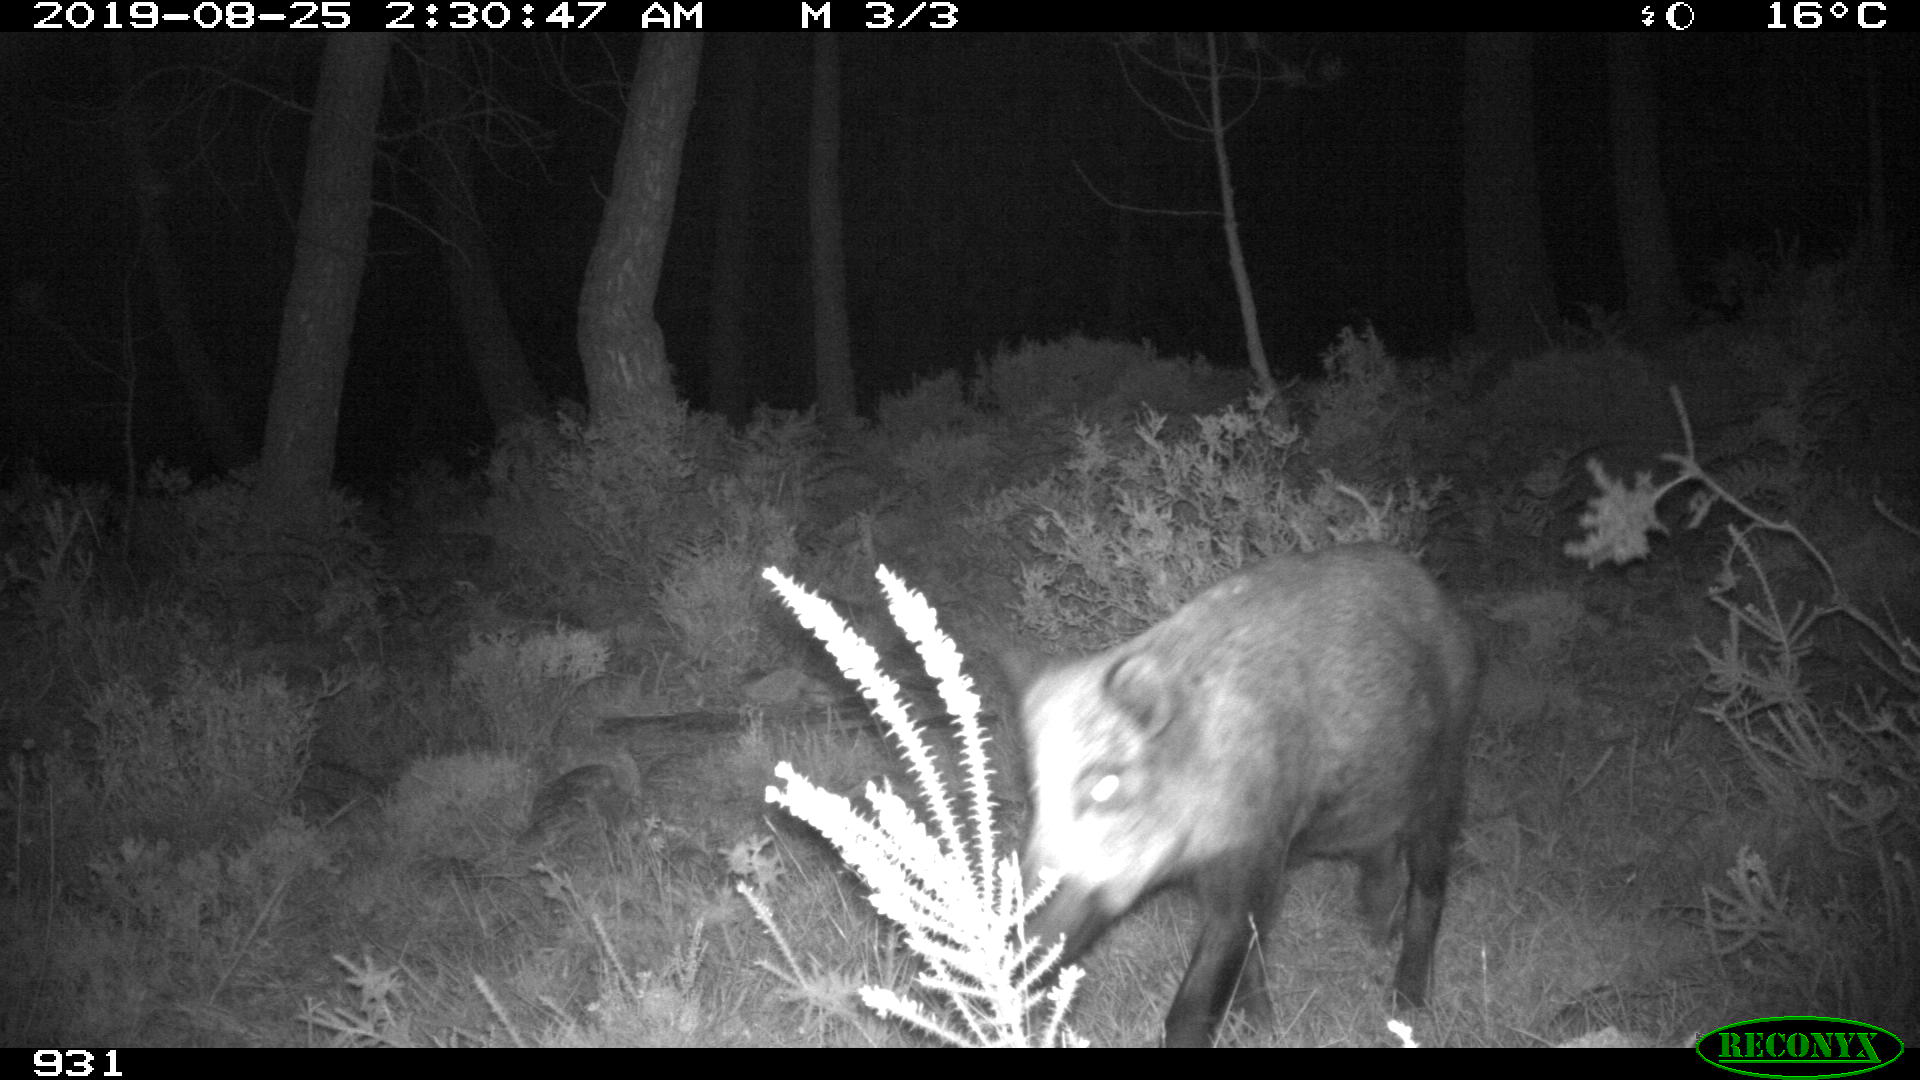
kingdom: Animalia
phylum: Chordata
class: Mammalia
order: Artiodactyla
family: Suidae
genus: Sus
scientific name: Sus scrofa
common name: Wild boar
